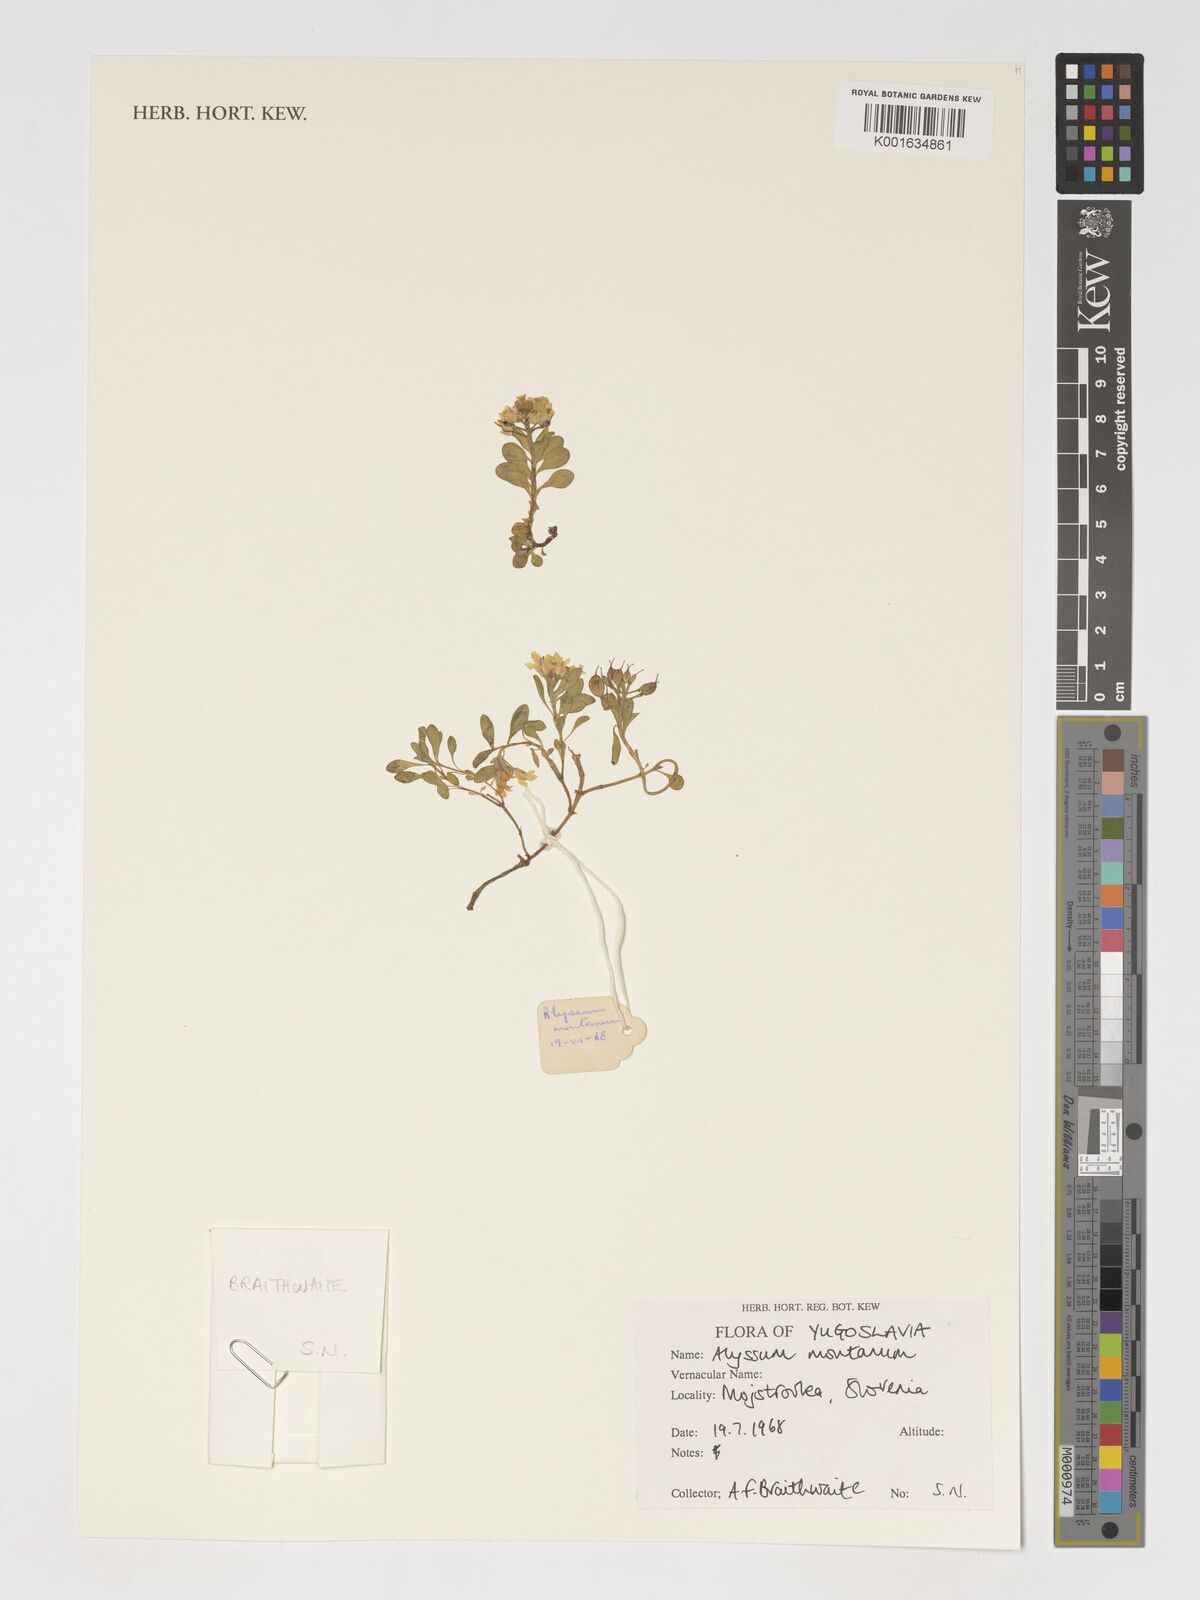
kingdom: Plantae
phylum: Tracheophyta
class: Magnoliopsida
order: Brassicales
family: Brassicaceae
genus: Alyssum
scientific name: Alyssum montanum
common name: Mountain alison
